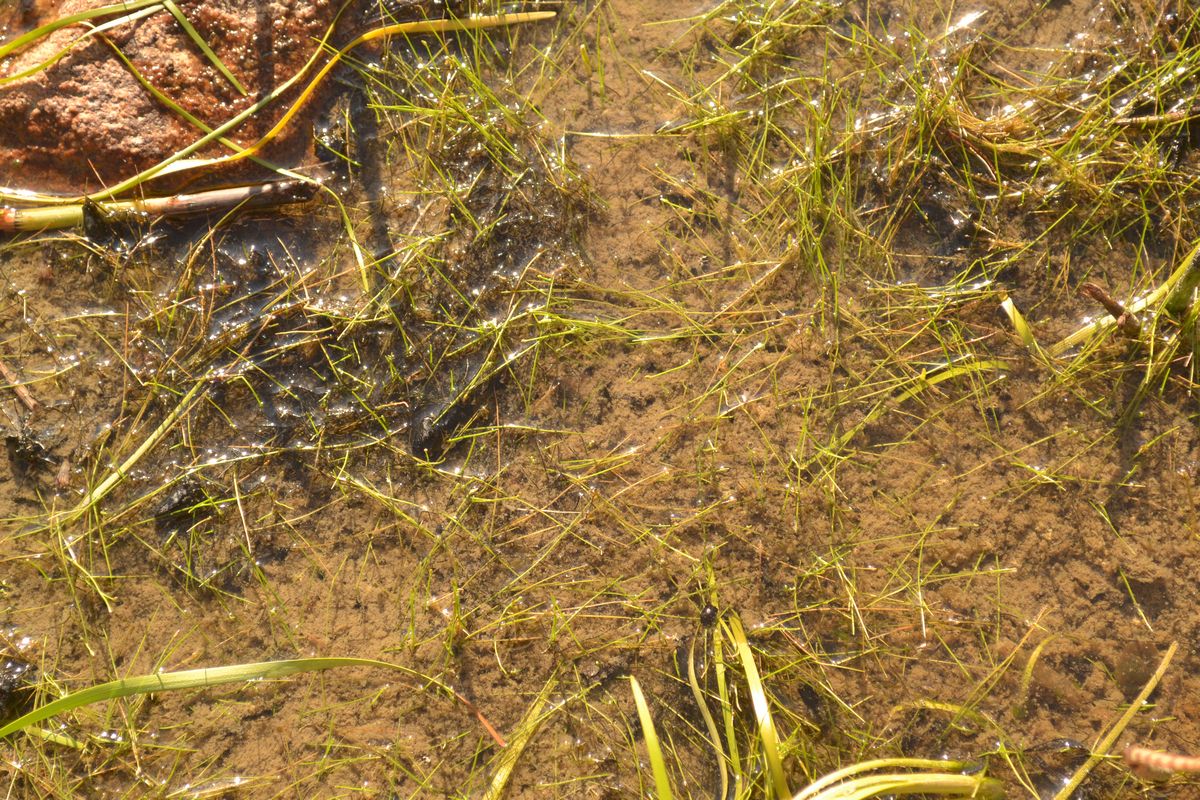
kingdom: Plantae
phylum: Tracheophyta
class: Liliopsida
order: Poales
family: Cyperaceae
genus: Eleocharis
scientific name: Eleocharis acicularis
